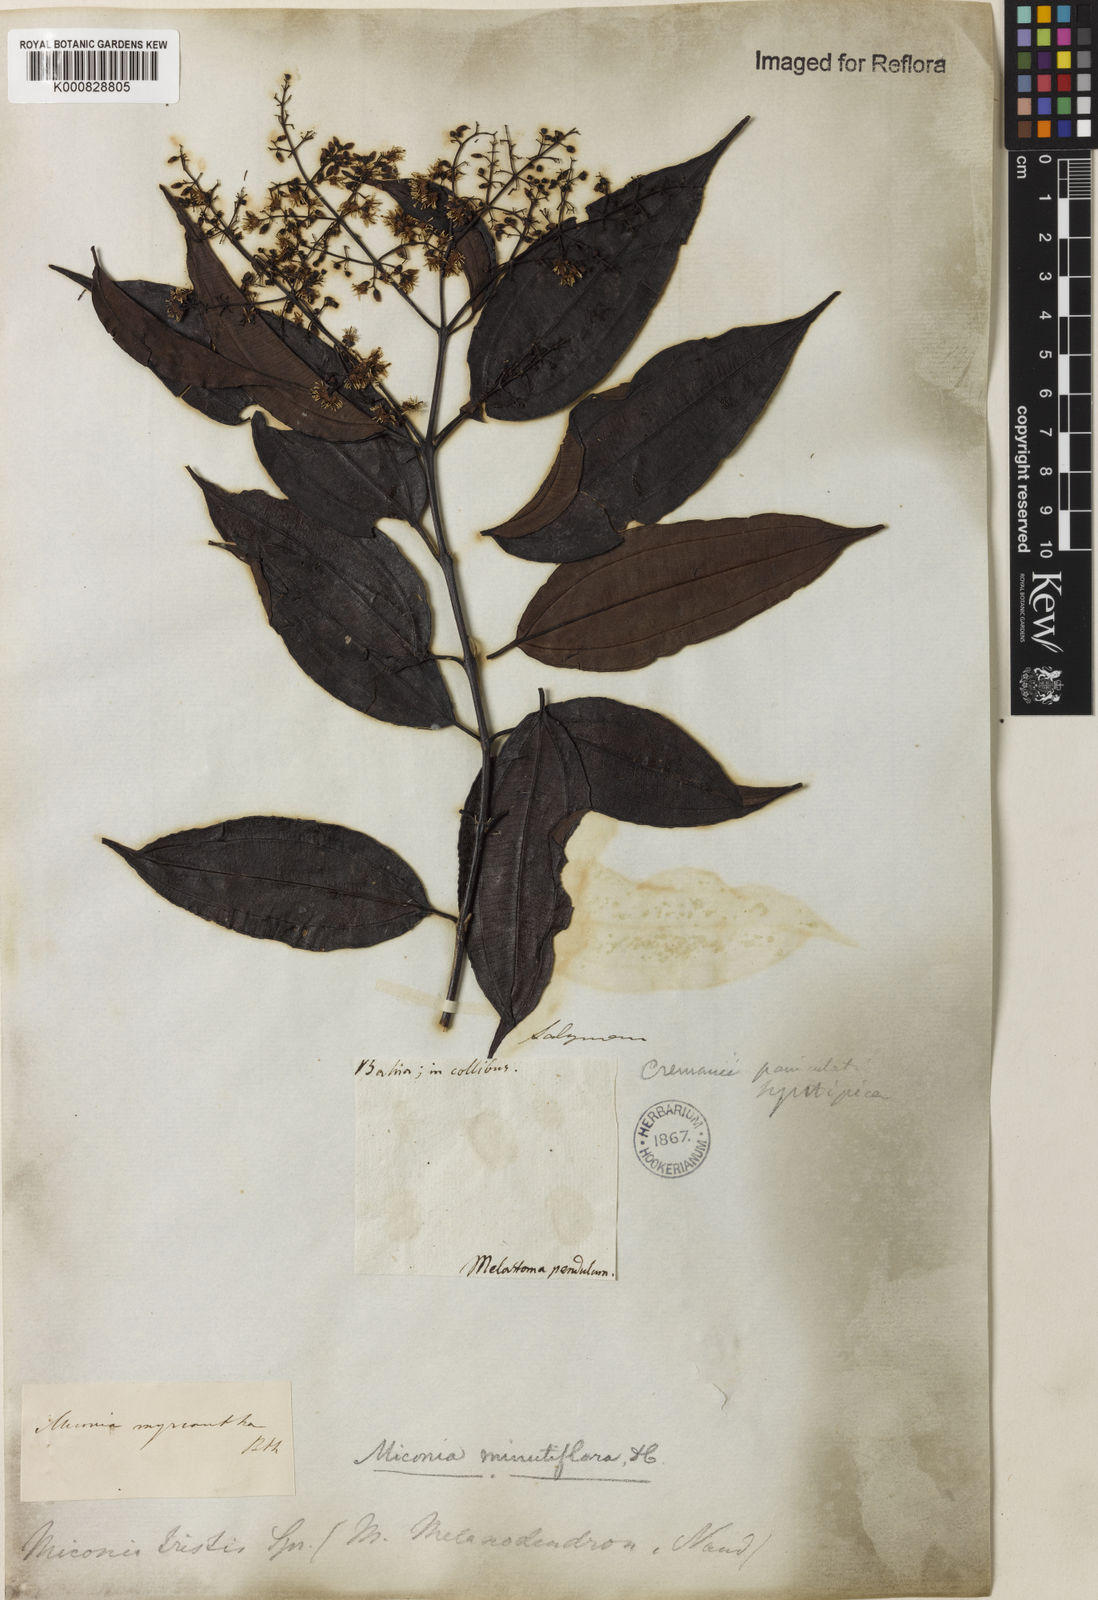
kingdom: Plantae
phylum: Tracheophyta
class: Magnoliopsida
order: Myrtales
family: Melastomataceae
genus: Miconia
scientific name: Miconia minutiflora
